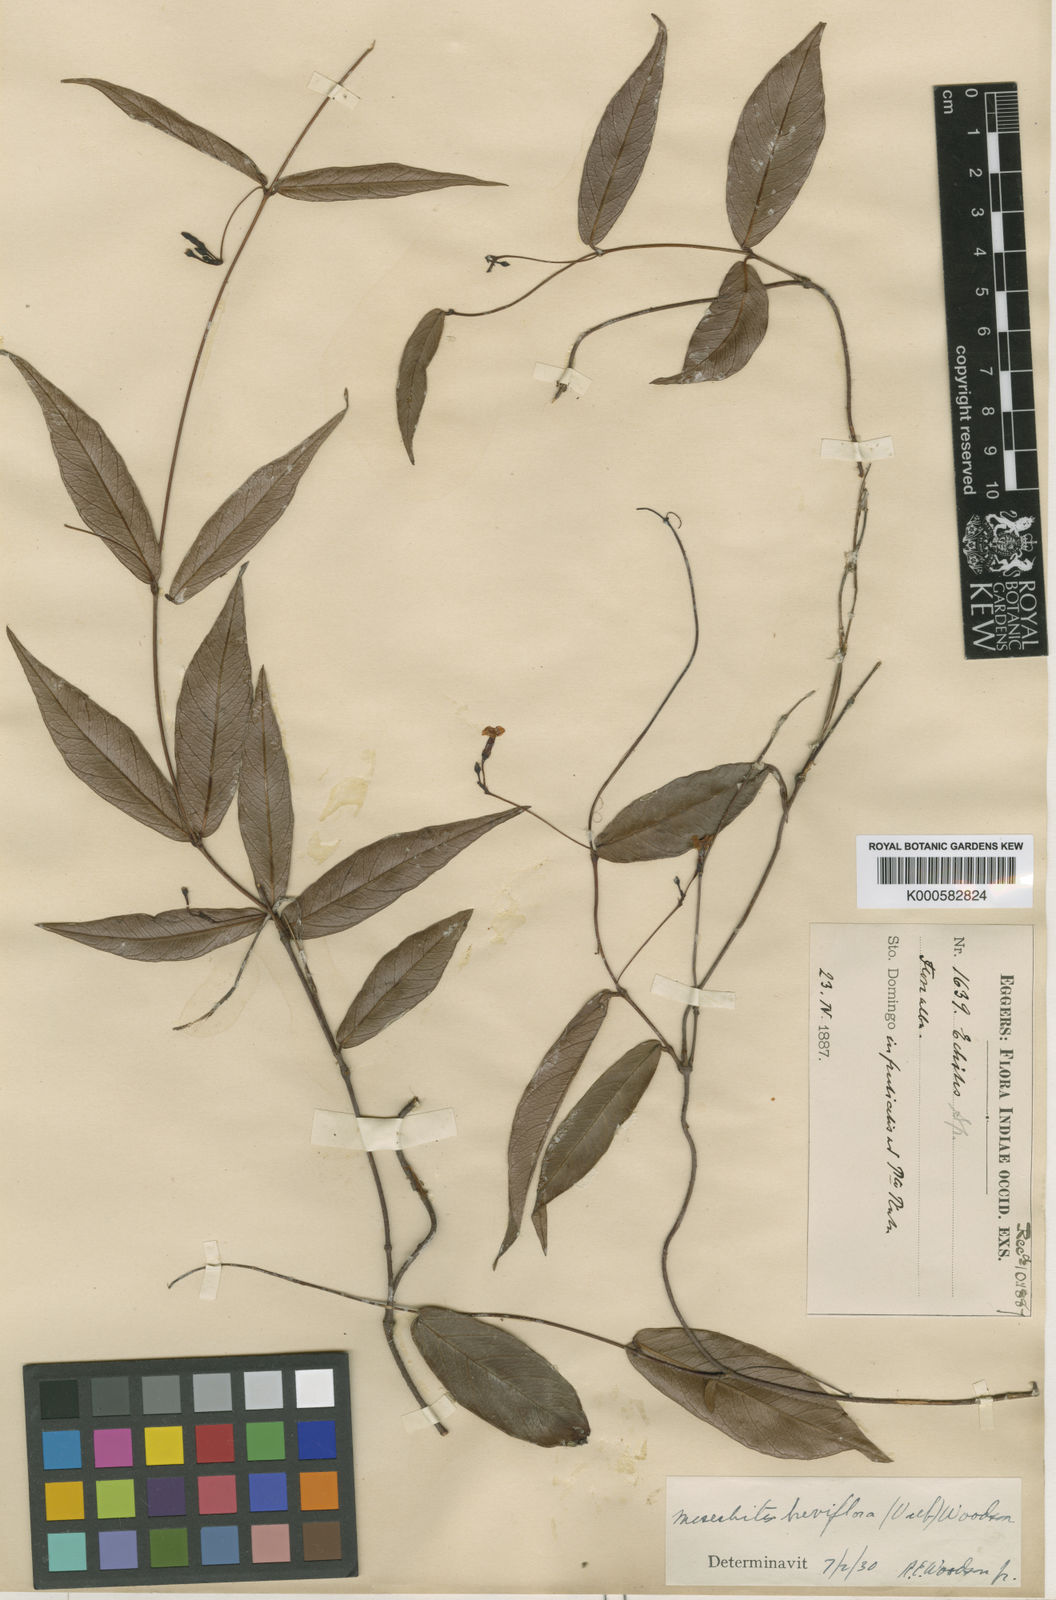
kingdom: Plantae
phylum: Tracheophyta
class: Magnoliopsida
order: Gentianales
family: Apocynaceae
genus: Mesechites
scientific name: Mesechites angustifolius
